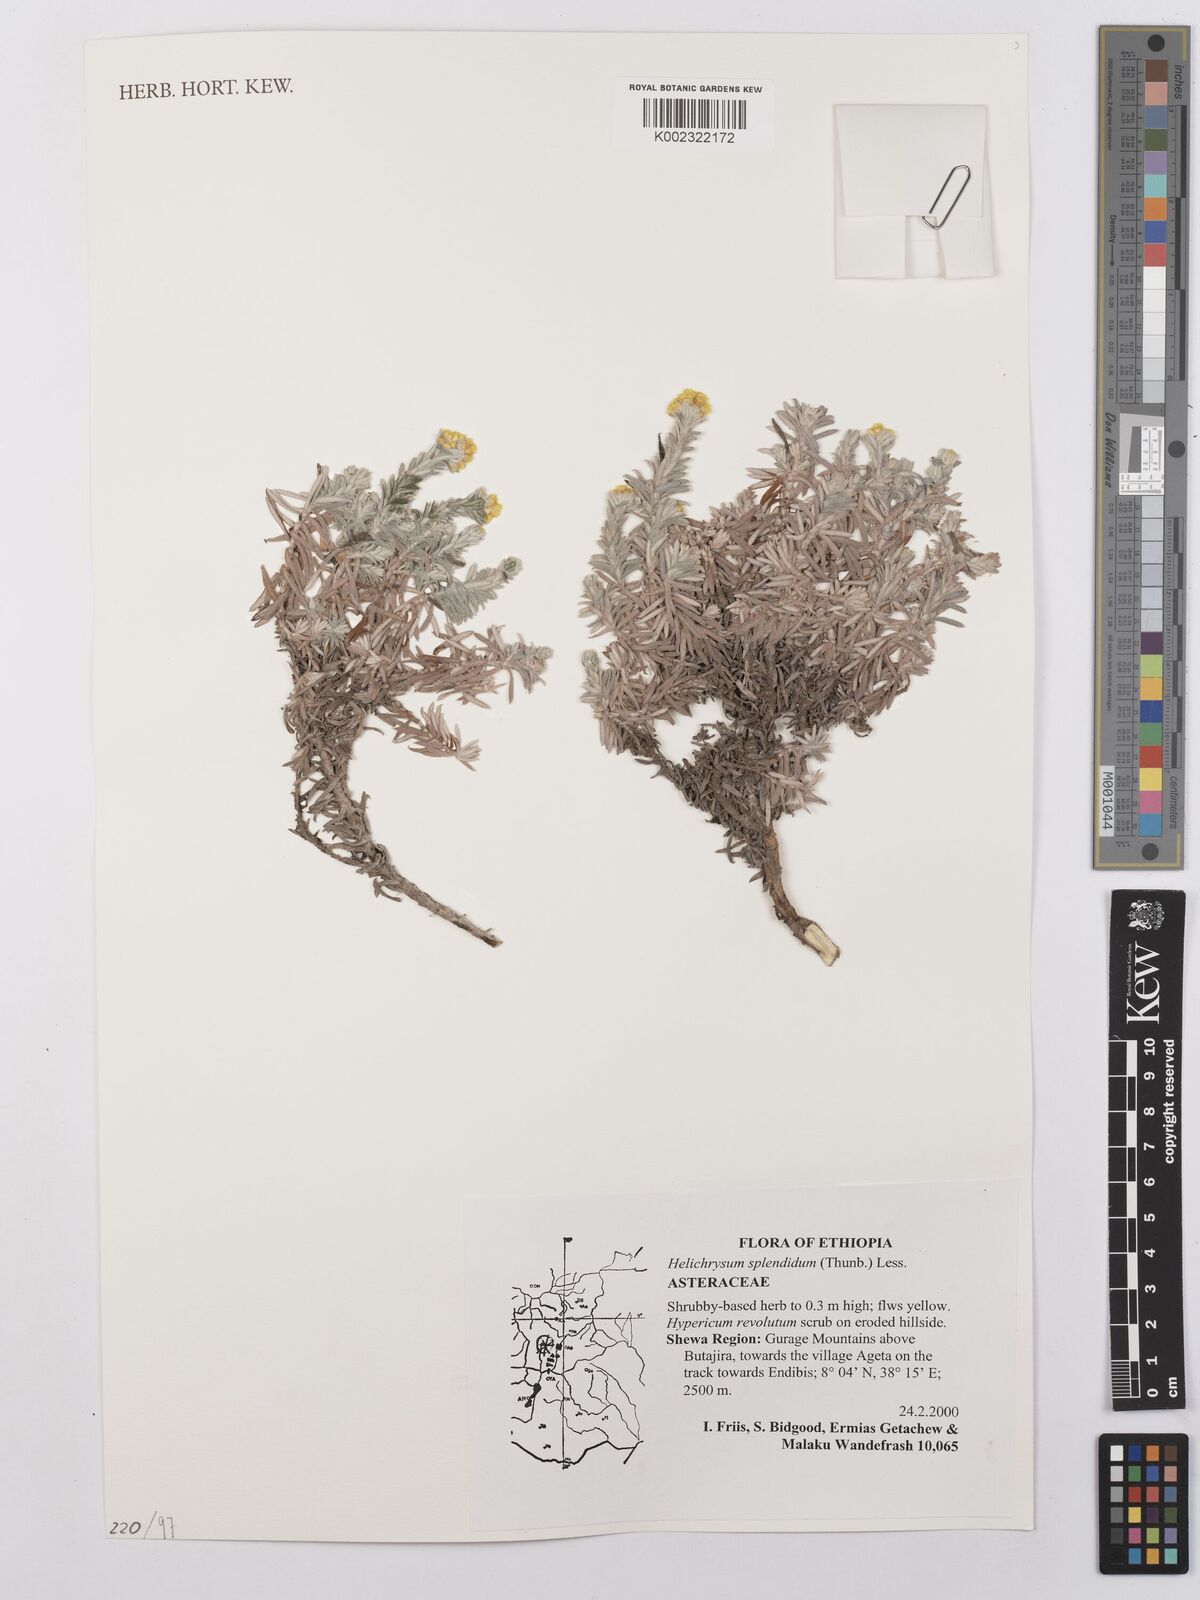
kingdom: Plantae
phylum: Tracheophyta
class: Magnoliopsida
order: Asterales
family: Asteraceae
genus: Helichrysum
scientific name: Helichrysum splendidum
